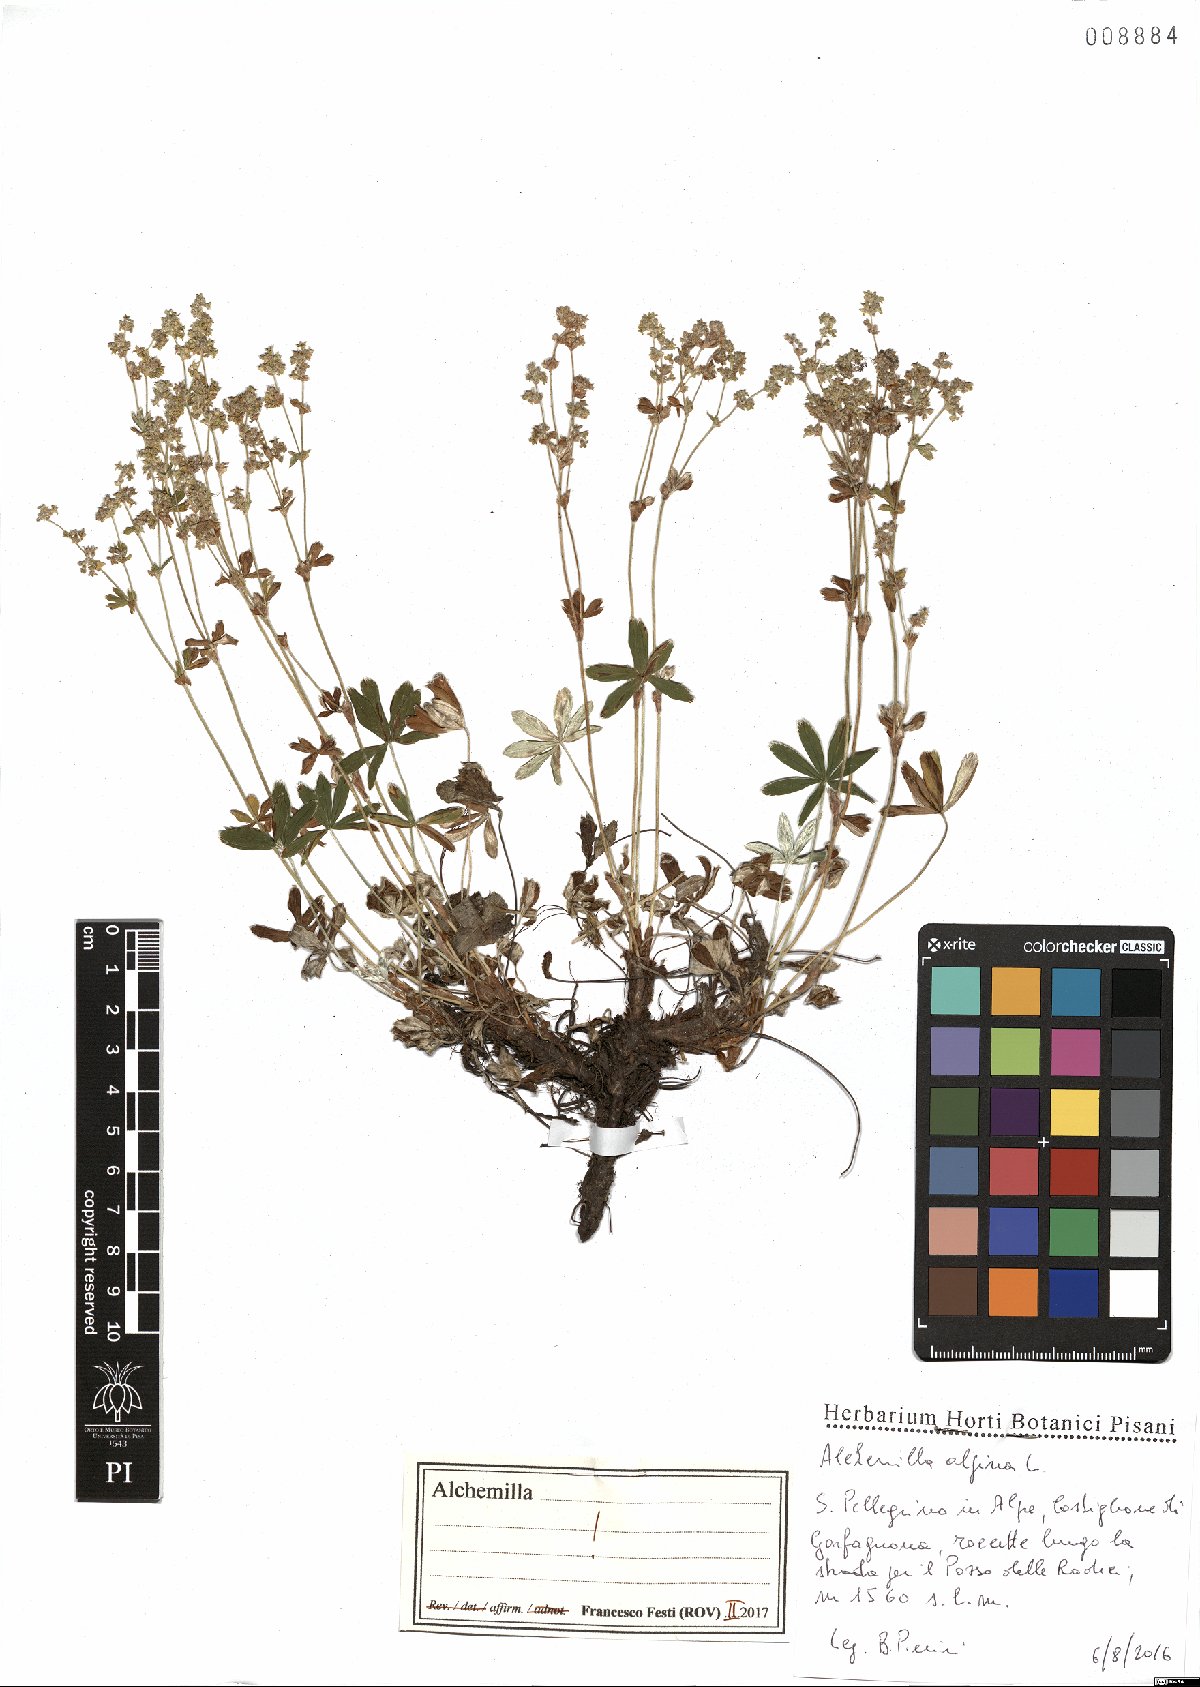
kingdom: Plantae
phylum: Tracheophyta
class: Magnoliopsida
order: Rosales
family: Rosaceae
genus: Alchemilla
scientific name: Alchemilla alpina
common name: Alpine lady's-mantle
